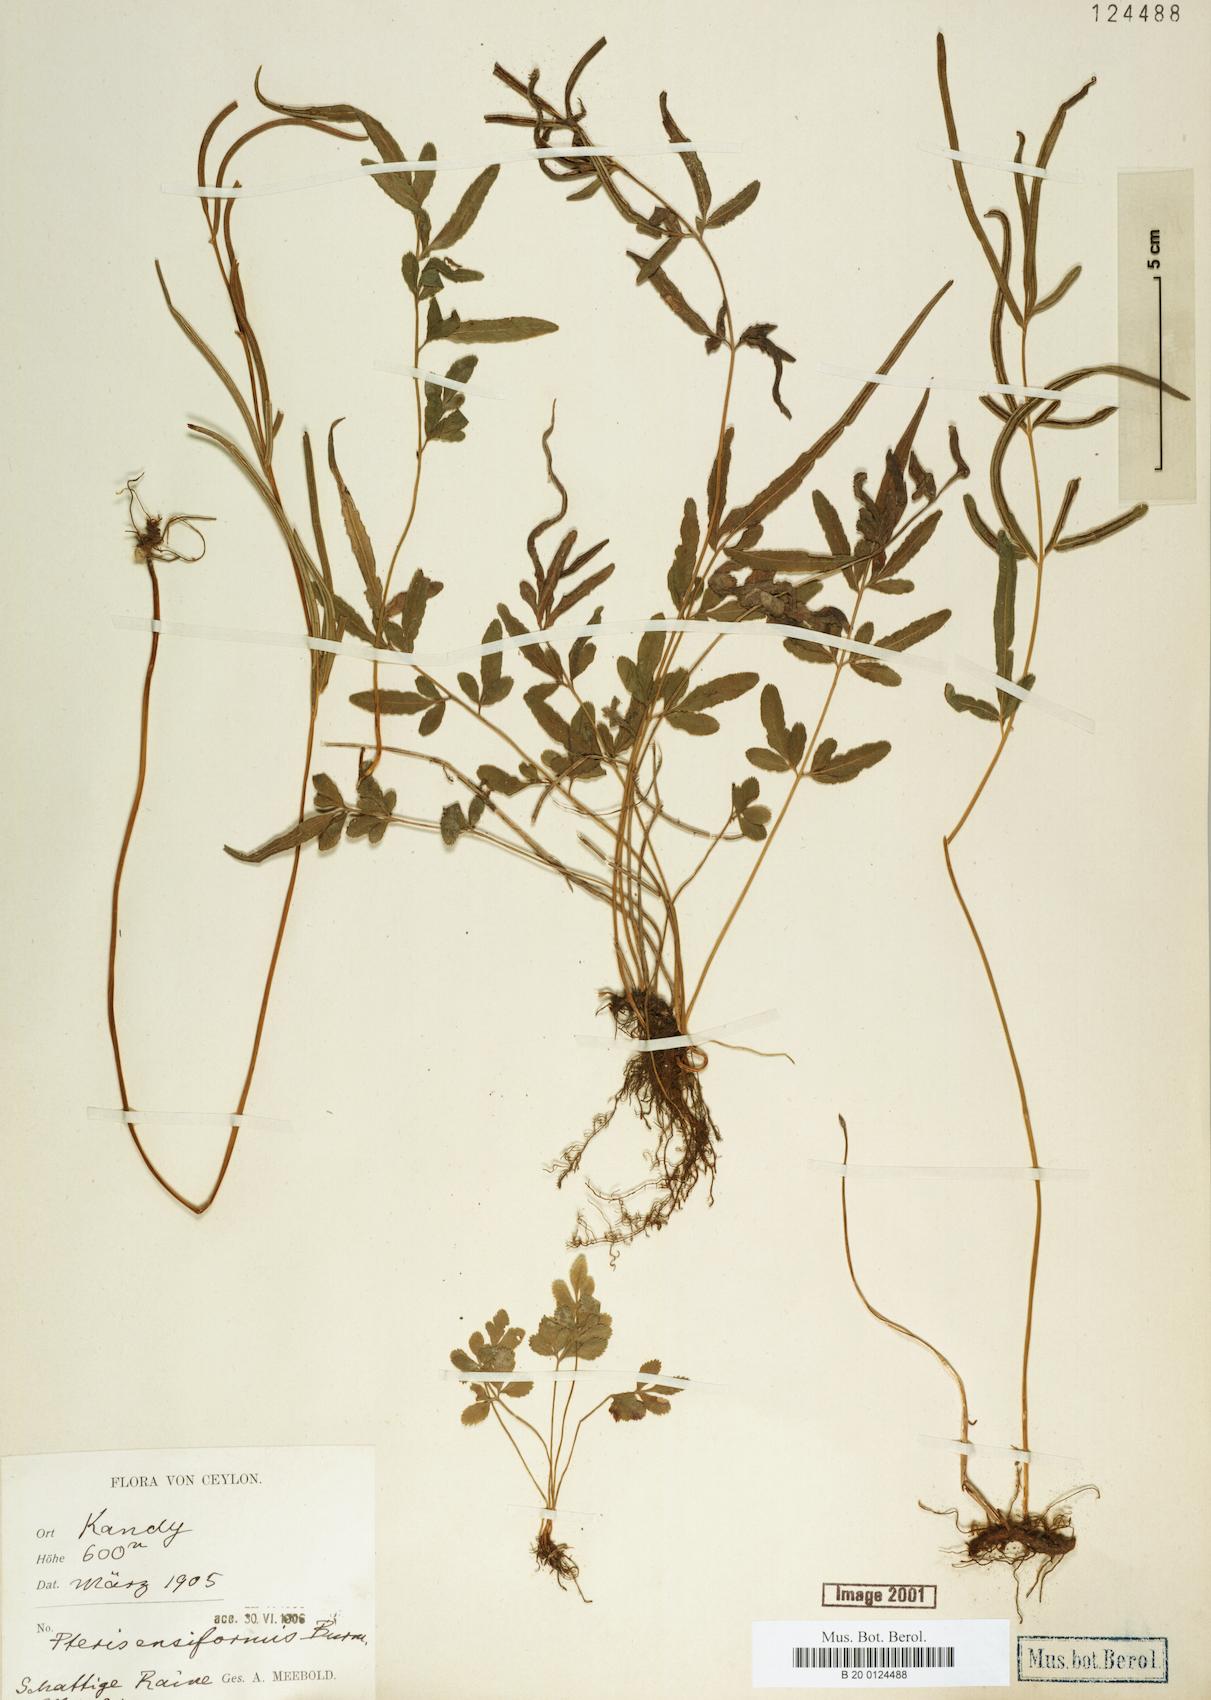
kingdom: Plantae
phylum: Tracheophyta
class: Polypodiopsida
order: Polypodiales
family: Pteridaceae
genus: Pteris
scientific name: Pteris ensiformis
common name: Sword brake
